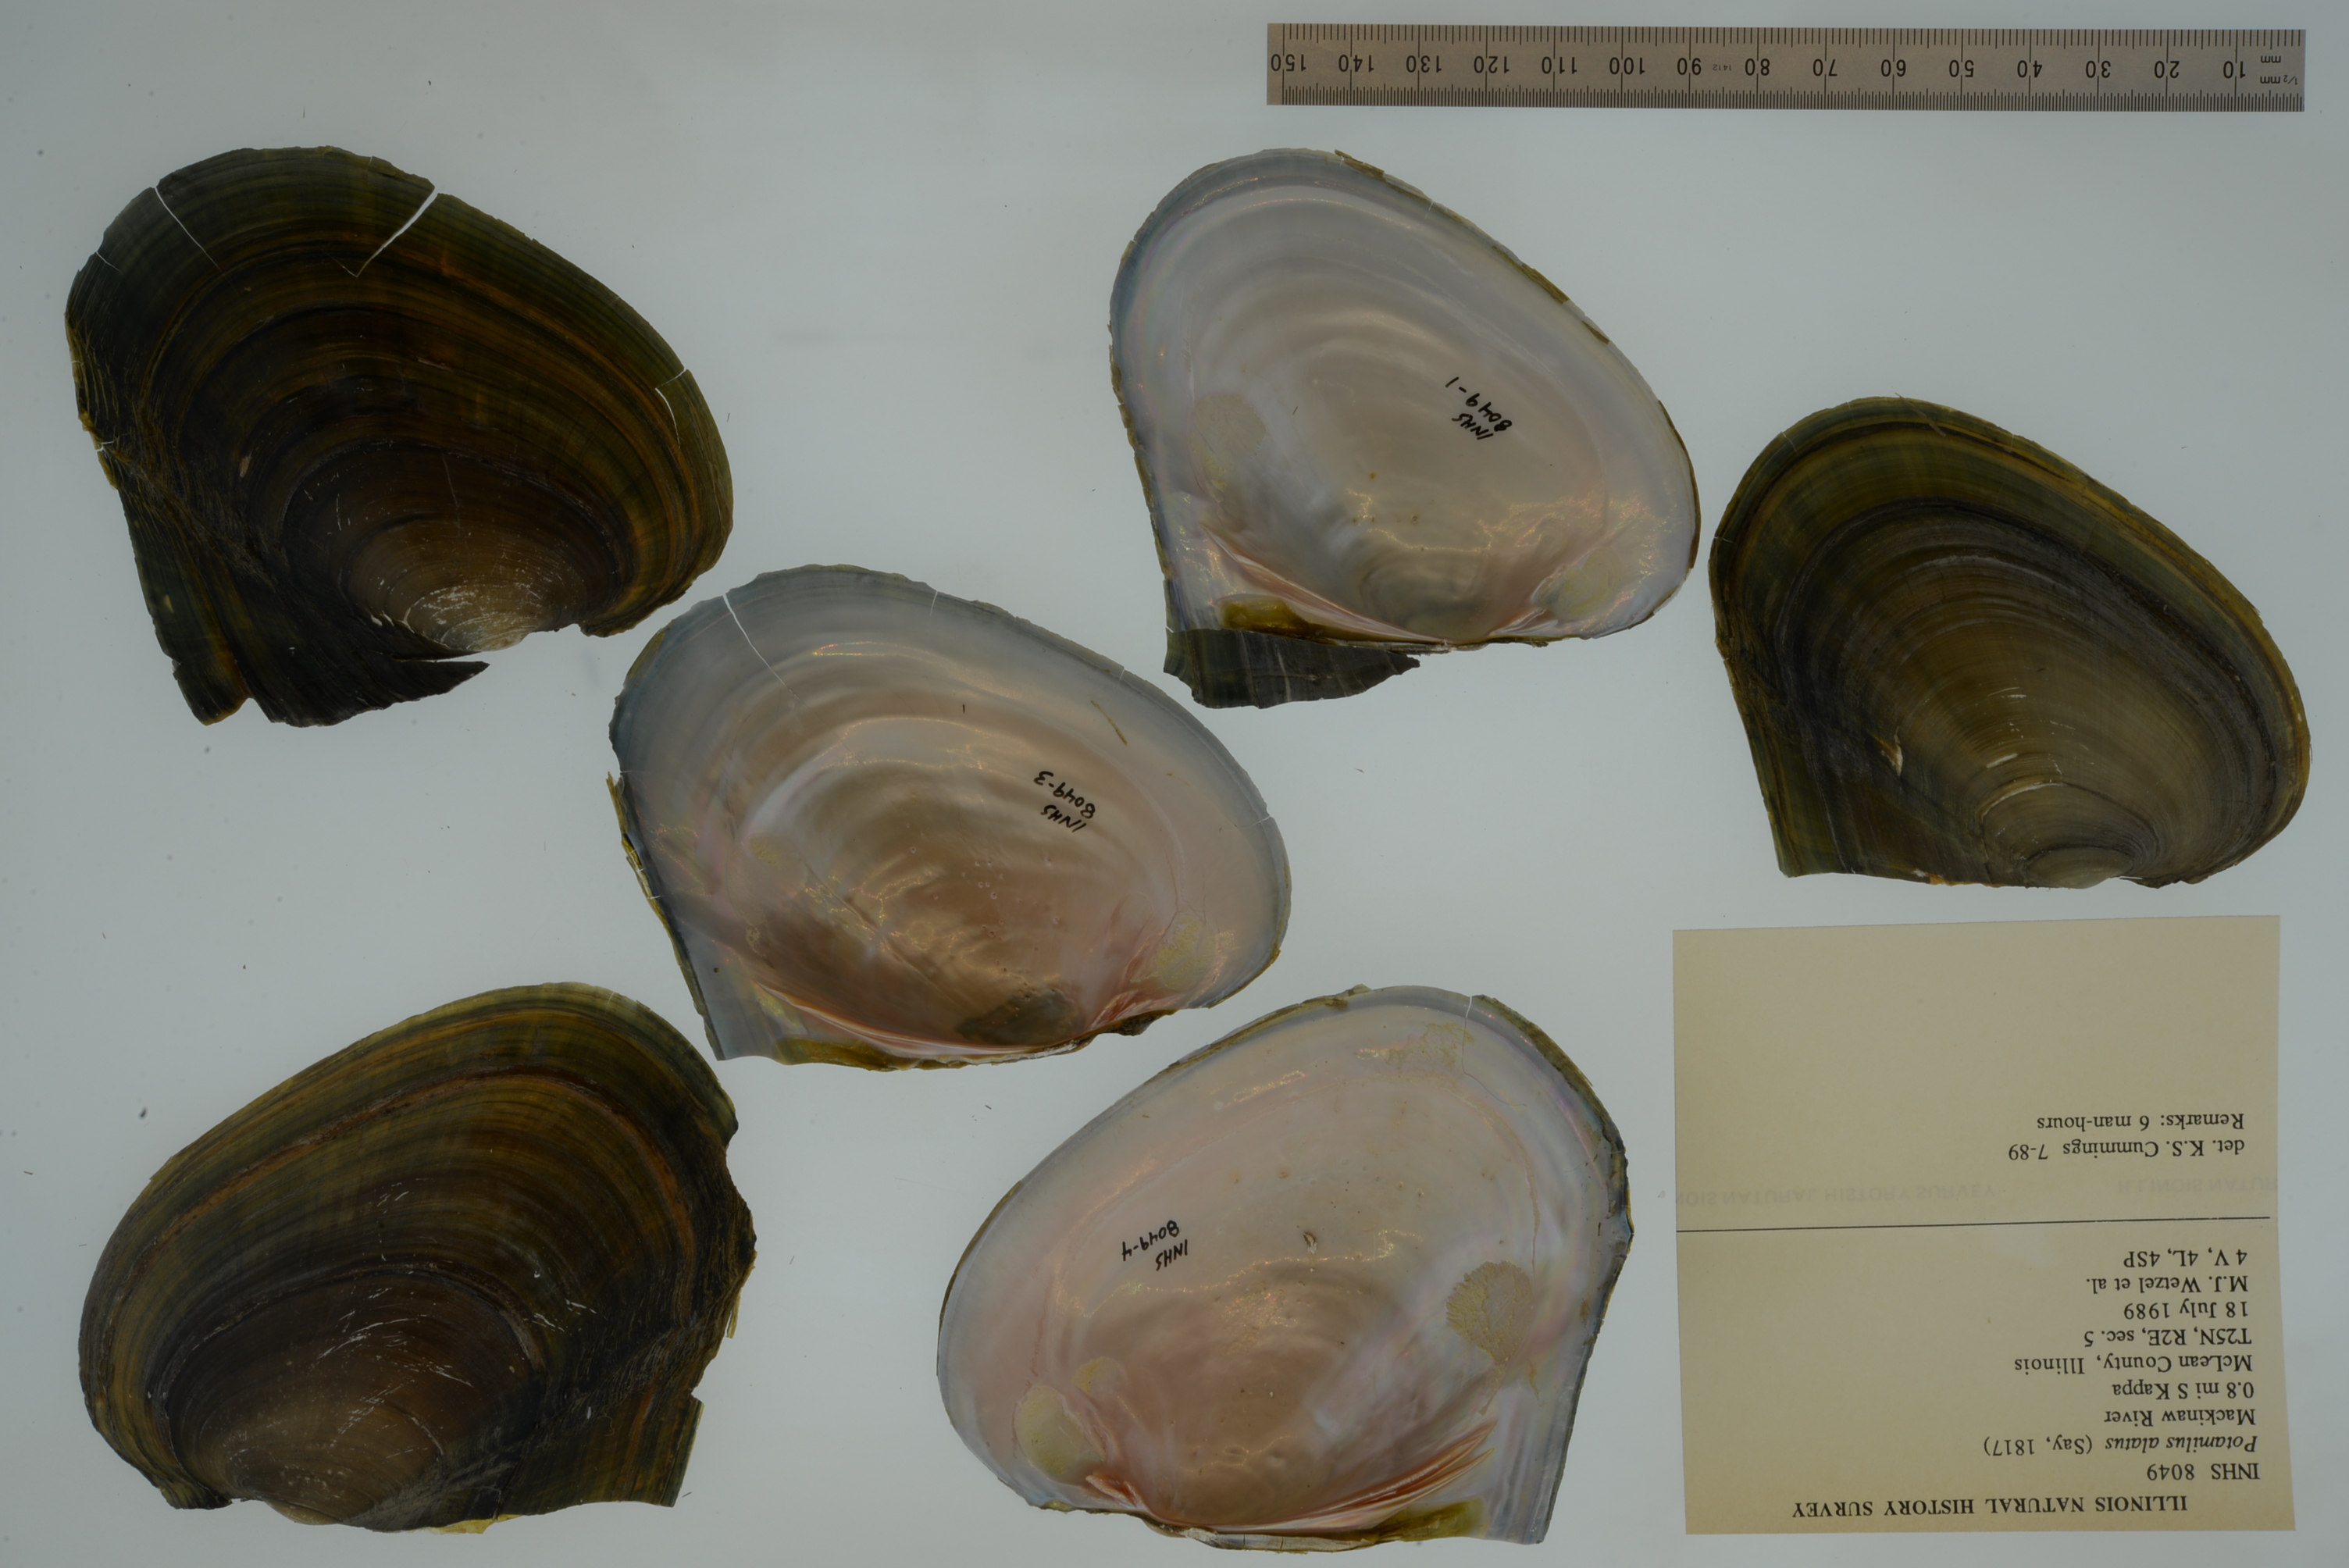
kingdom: Animalia
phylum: Mollusca
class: Bivalvia
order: Unionida
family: Unionidae
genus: Potamilus
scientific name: Potamilus alatus
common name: Pink heelsplitter
